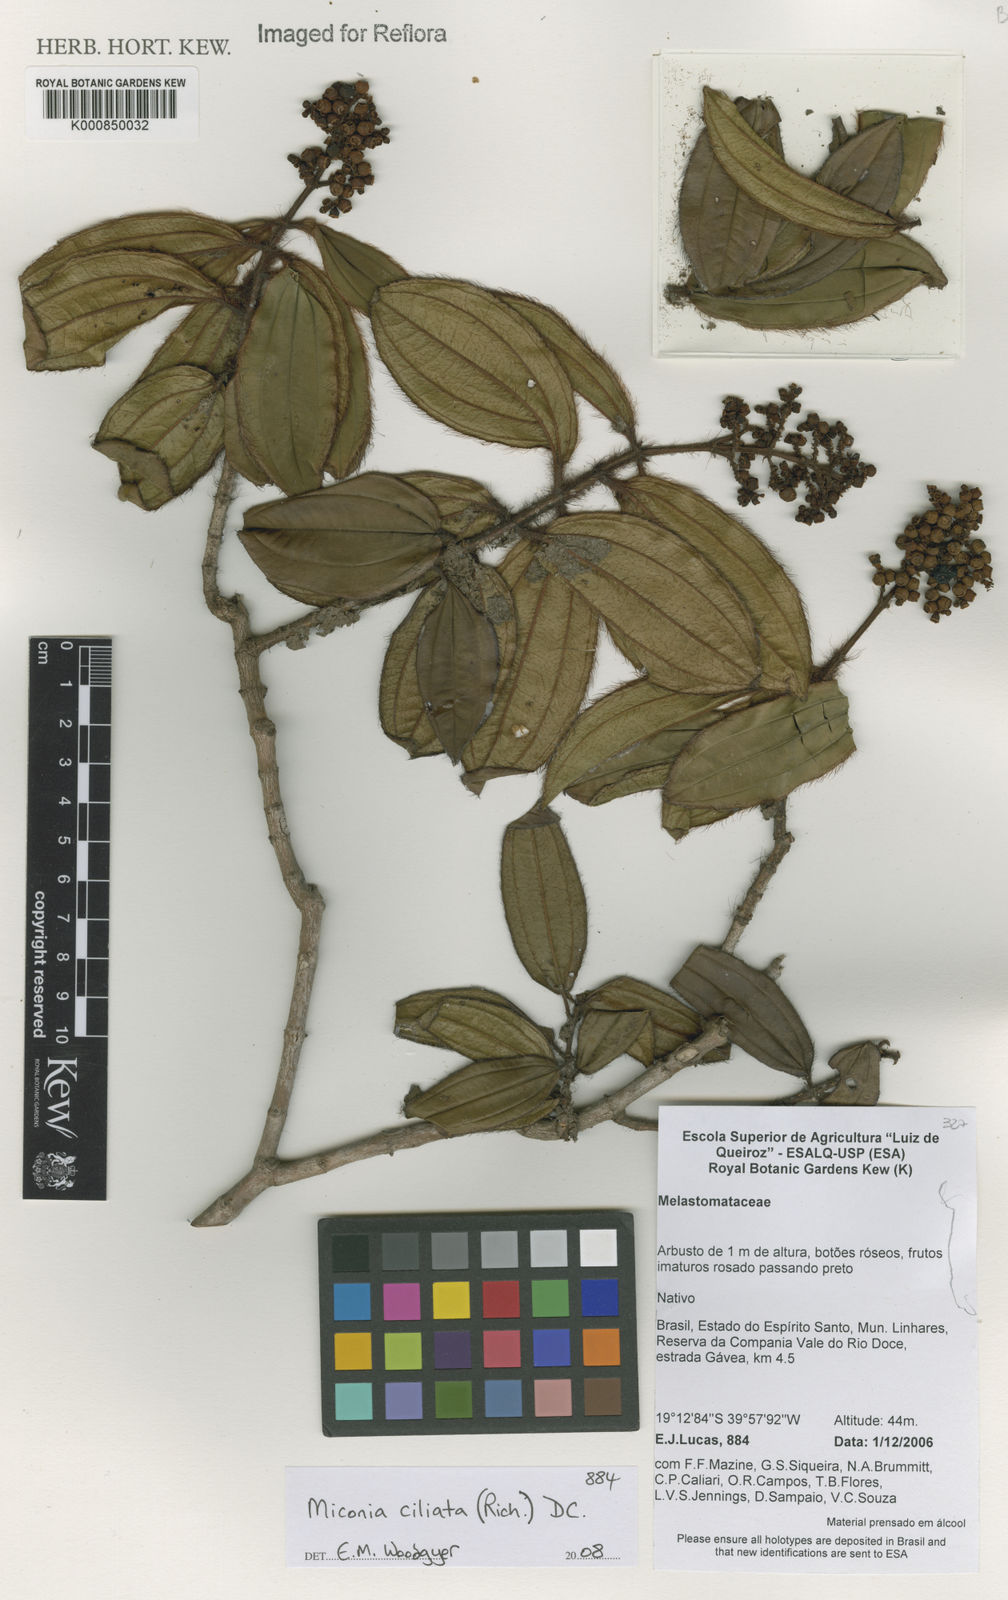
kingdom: Plantae
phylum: Tracheophyta
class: Magnoliopsida
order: Myrtales
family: Melastomataceae
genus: Miconia
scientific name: Miconia ciliata
